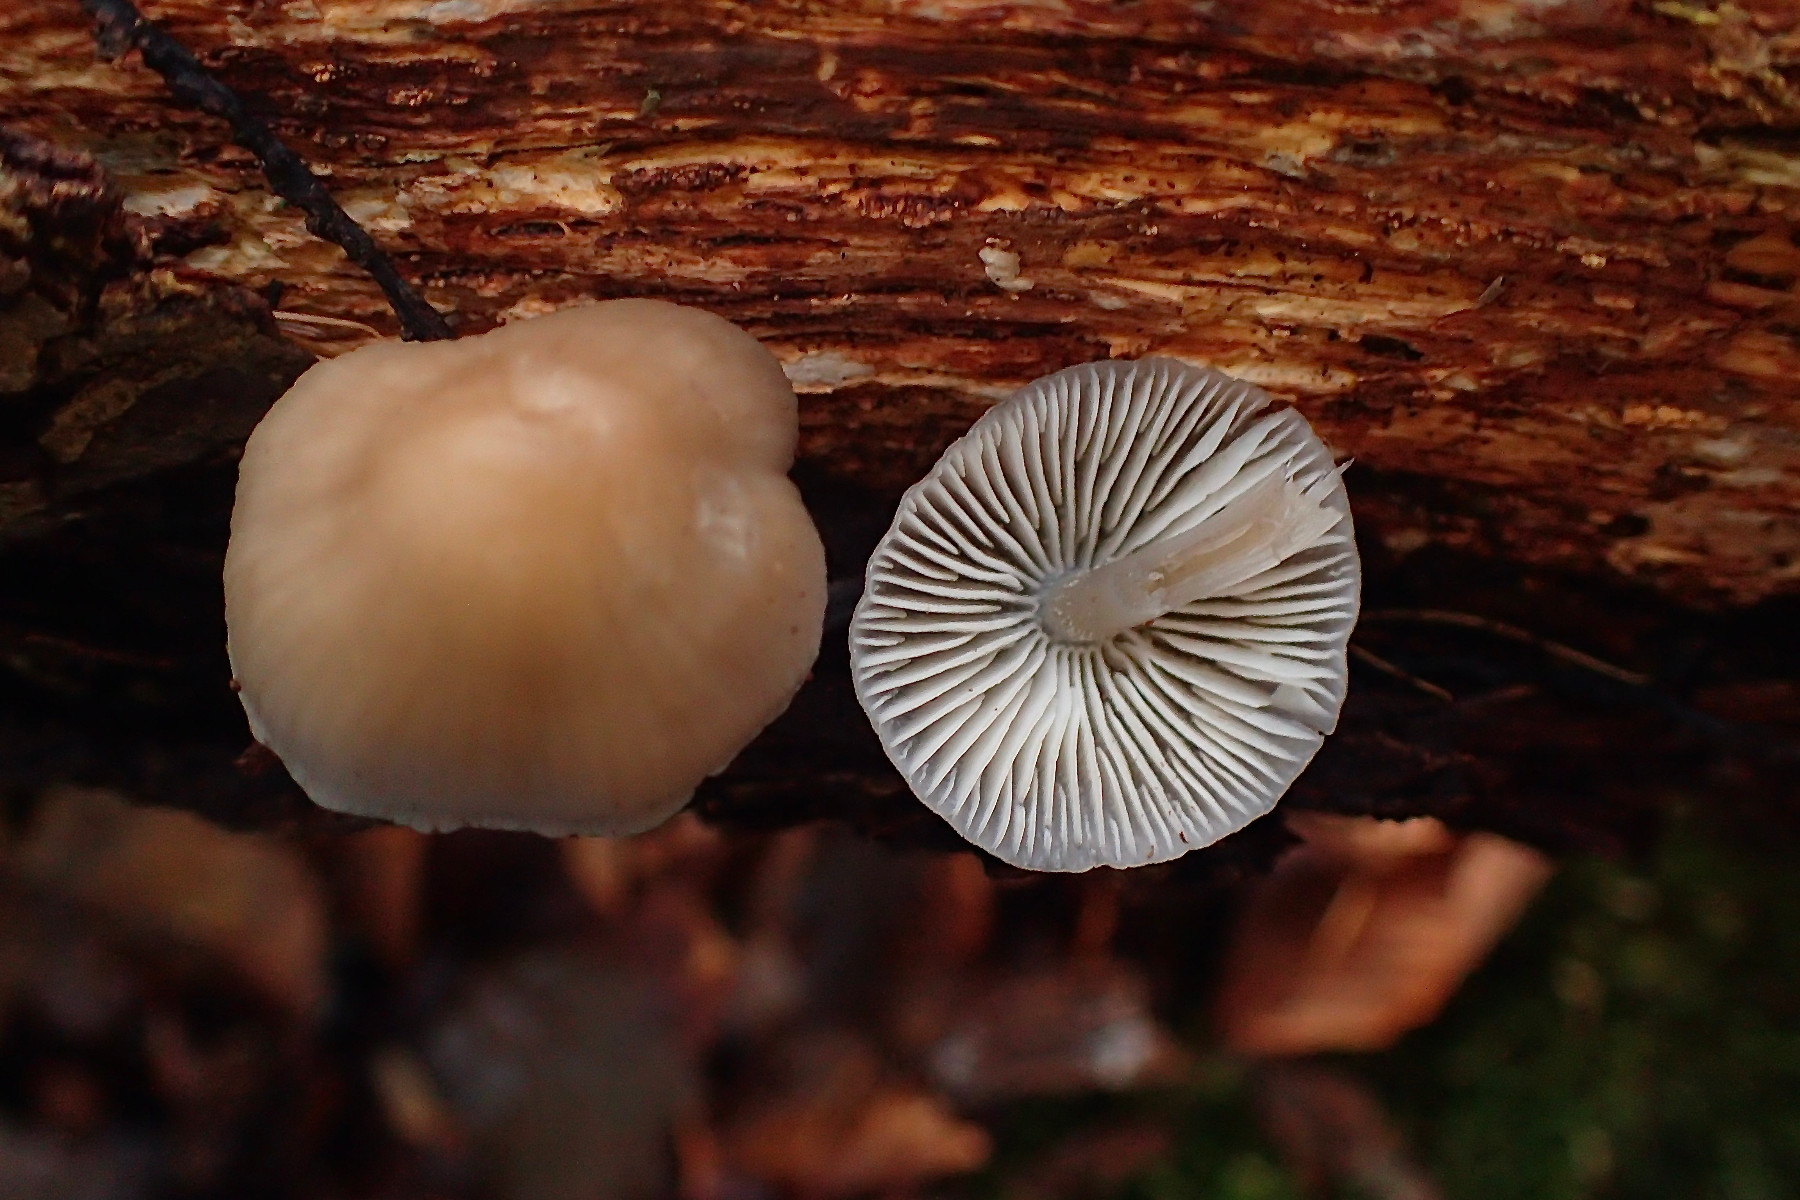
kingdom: Fungi
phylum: Basidiomycota
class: Agaricomycetes
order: Agaricales
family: Mycenaceae
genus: Mycena
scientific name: Mycena galericulata
